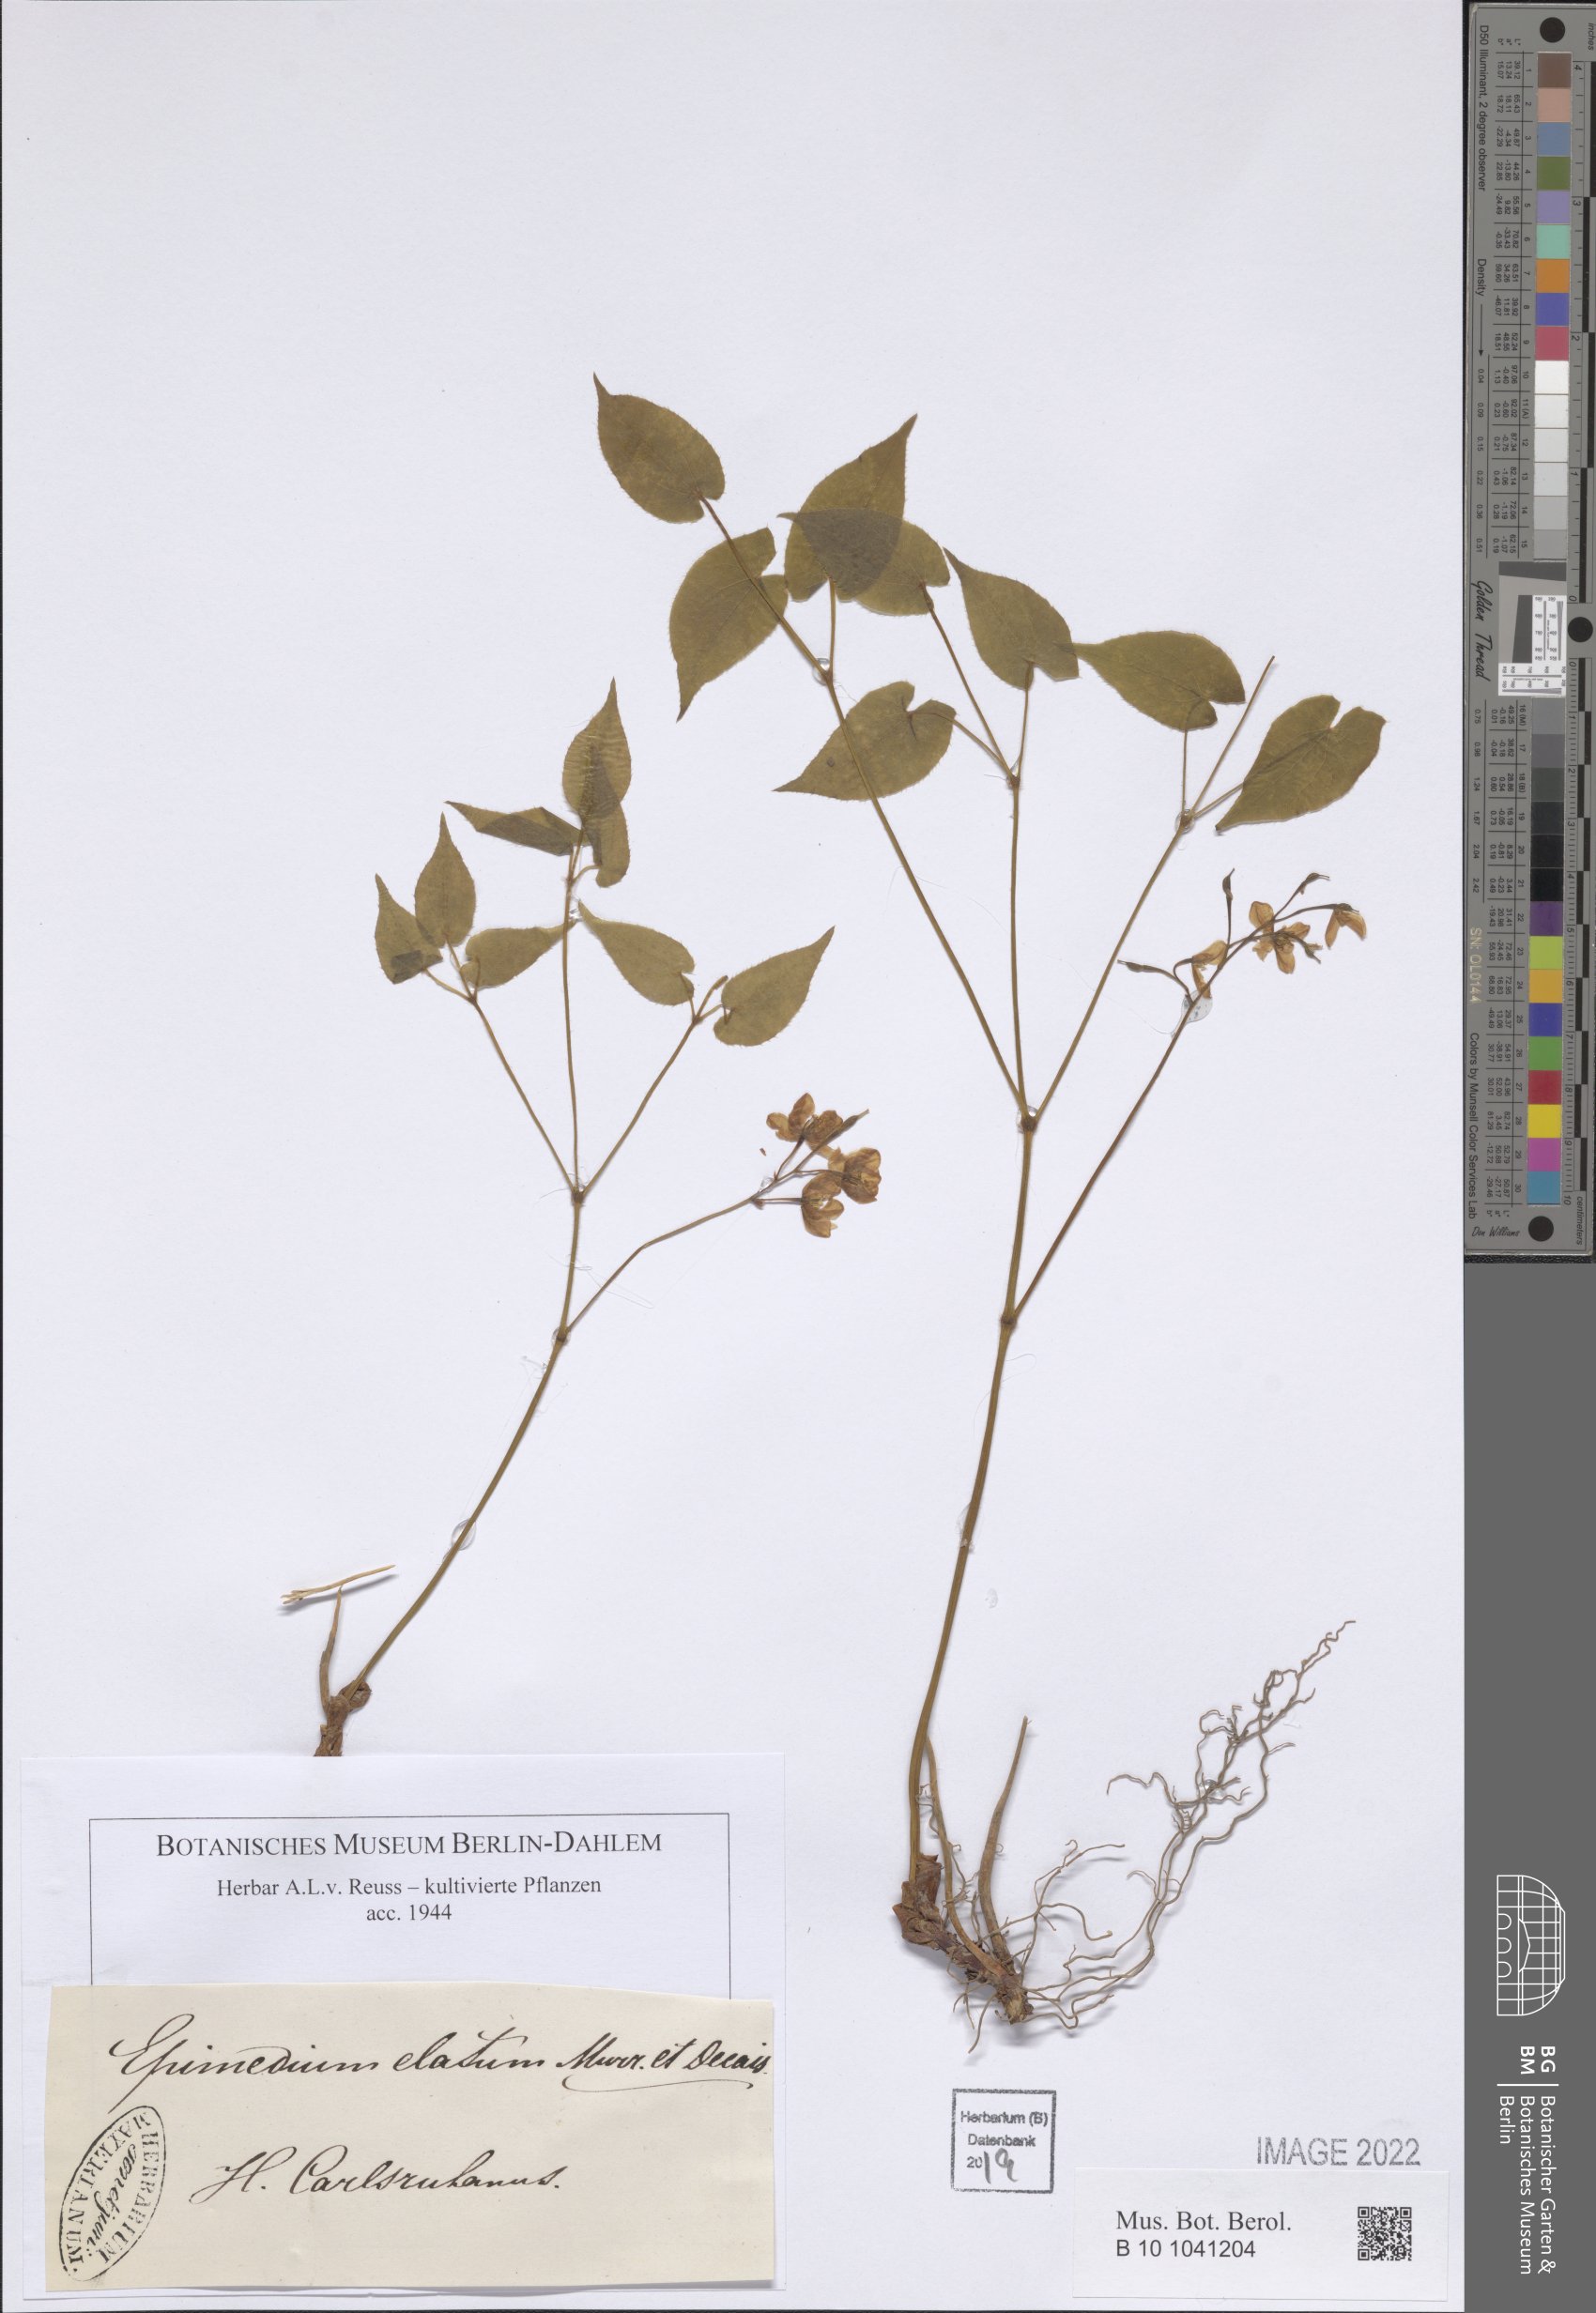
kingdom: Plantae
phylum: Tracheophyta
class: Magnoliopsida
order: Ranunculales
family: Berberidaceae
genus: Epimedium
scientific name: Epimedium elatum
